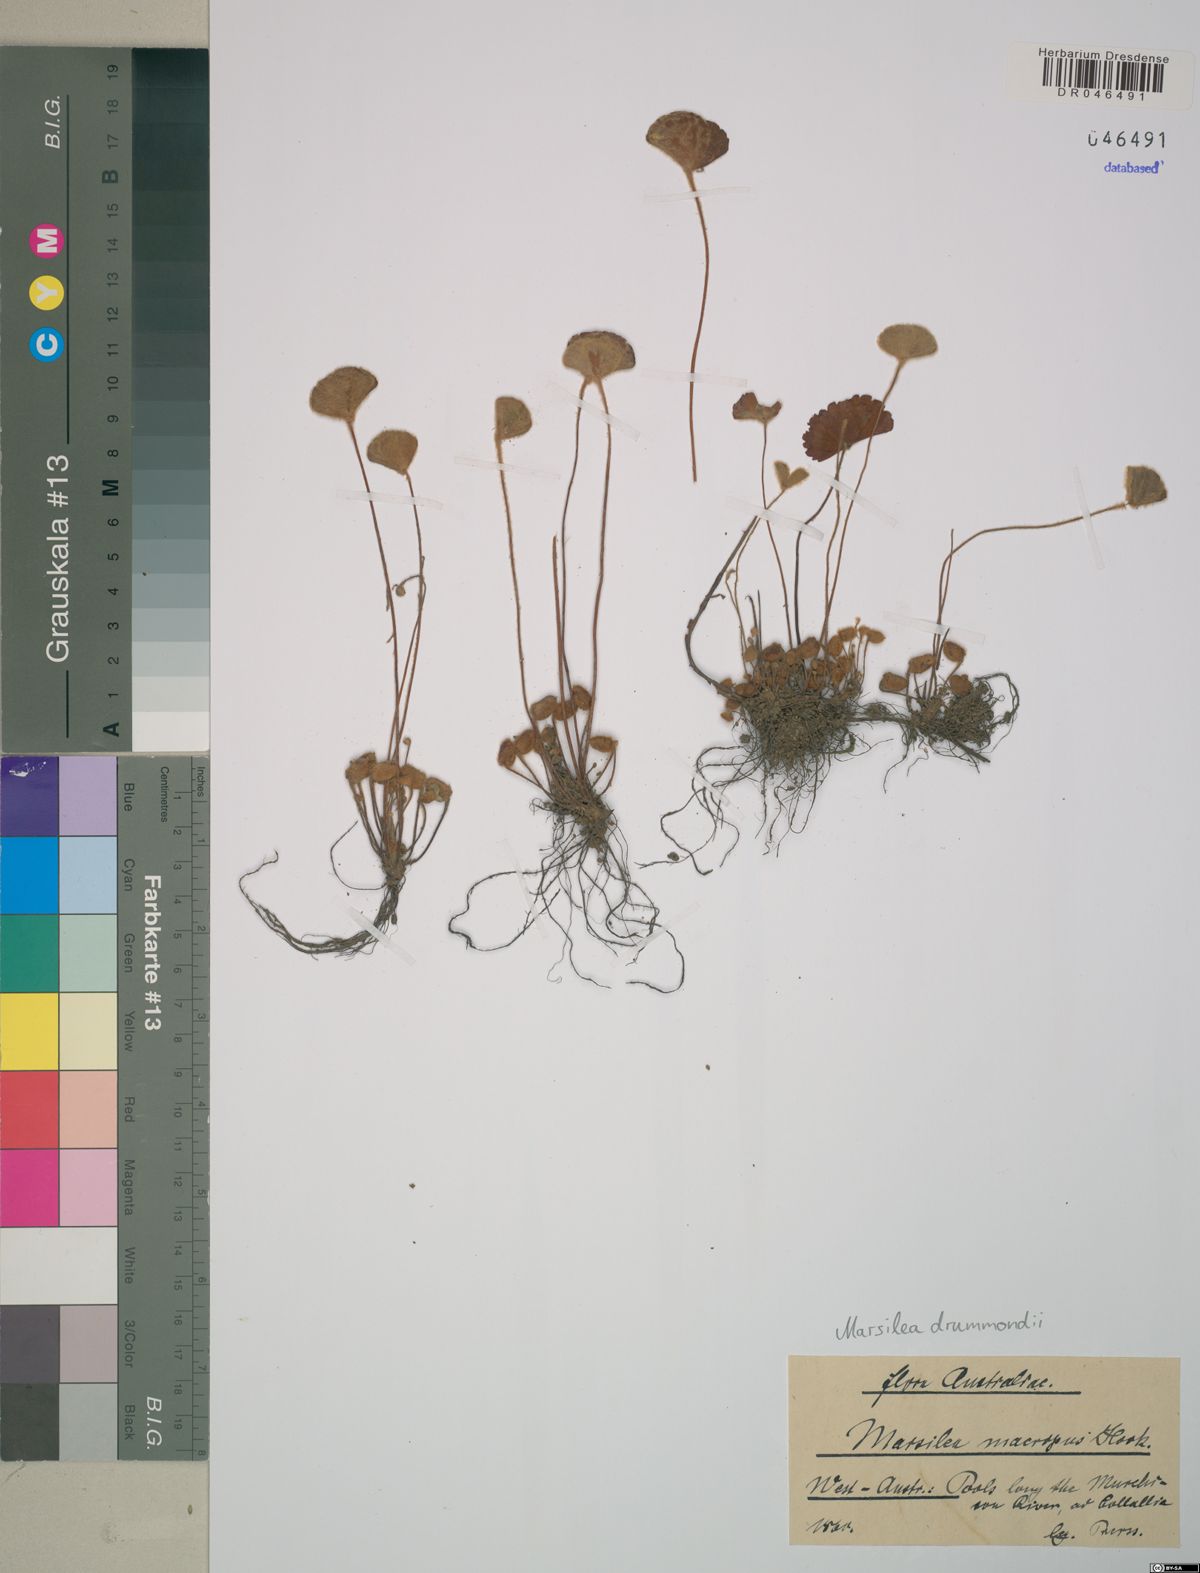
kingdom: Plantae
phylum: Tracheophyta
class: Polypodiopsida
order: Salviniales
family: Marsileaceae
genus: Marsilea
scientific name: Marsilea drummondii
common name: Nardoo
